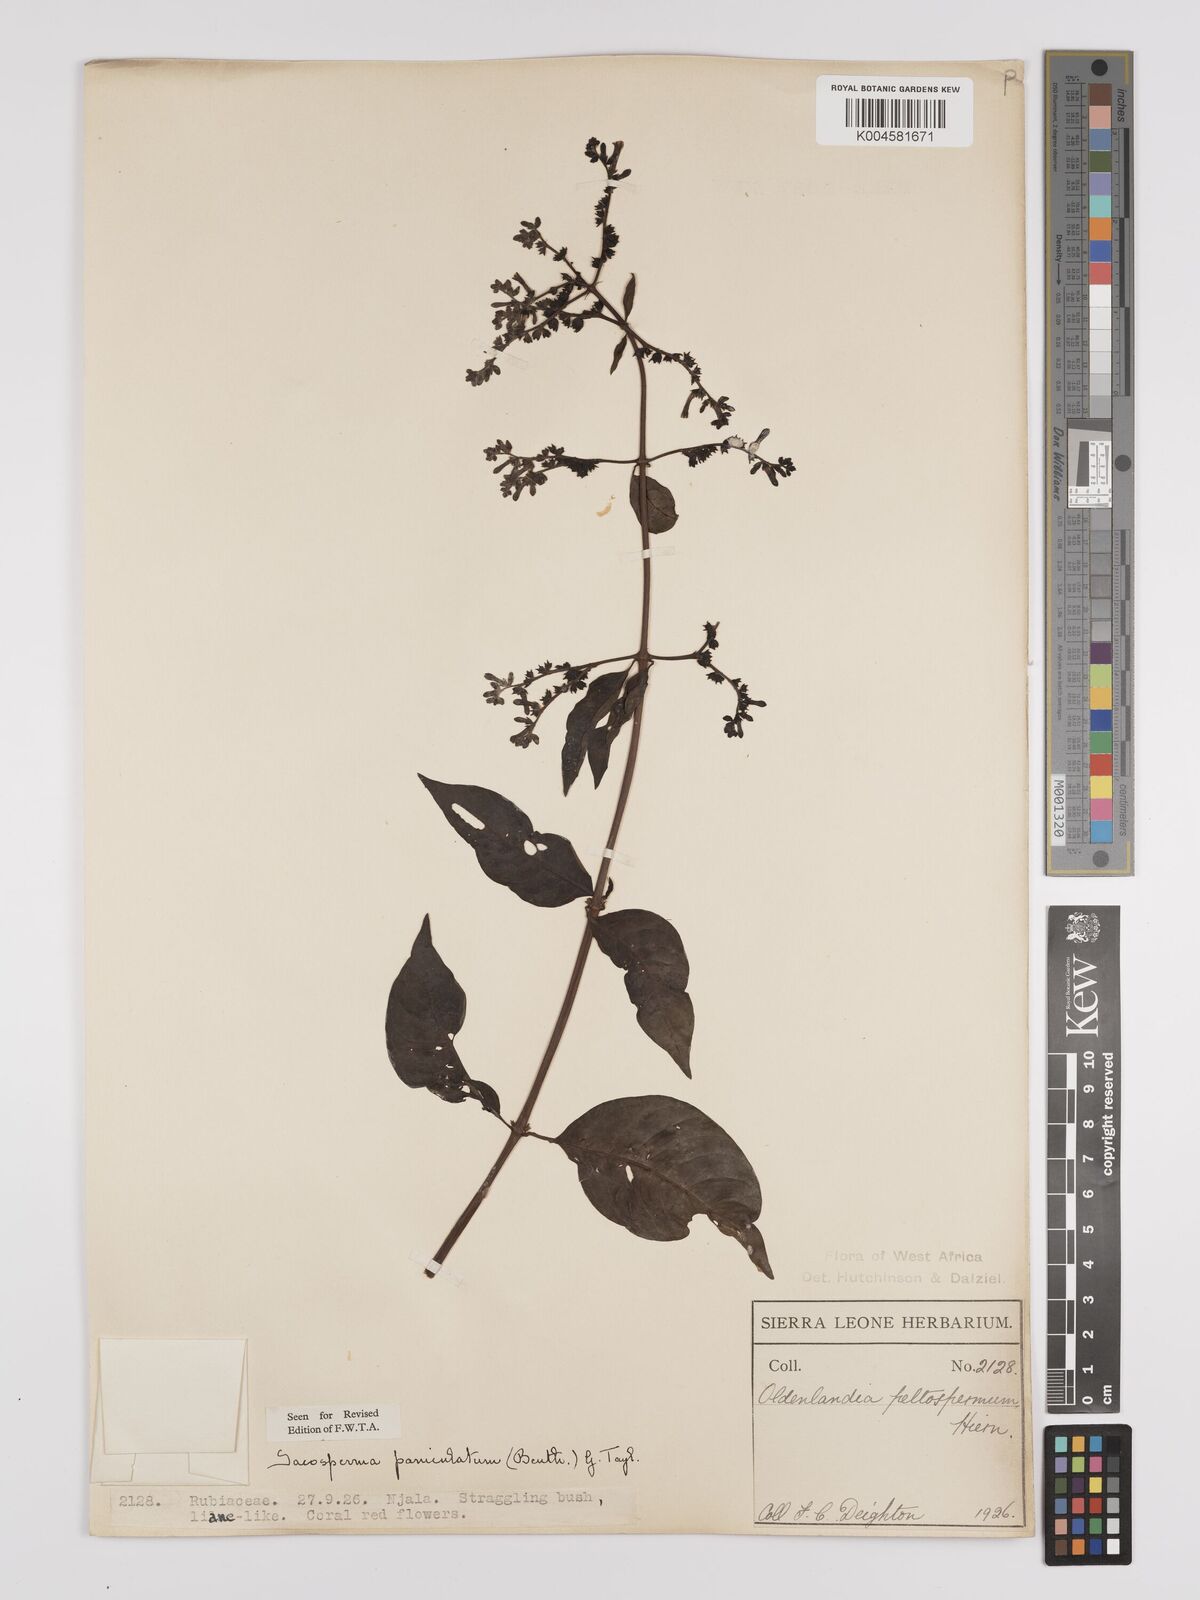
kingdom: Plantae
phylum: Tracheophyta
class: Magnoliopsida
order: Gentianales
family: Rubiaceae
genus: Sacosperma
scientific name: Sacosperma paniculatum
